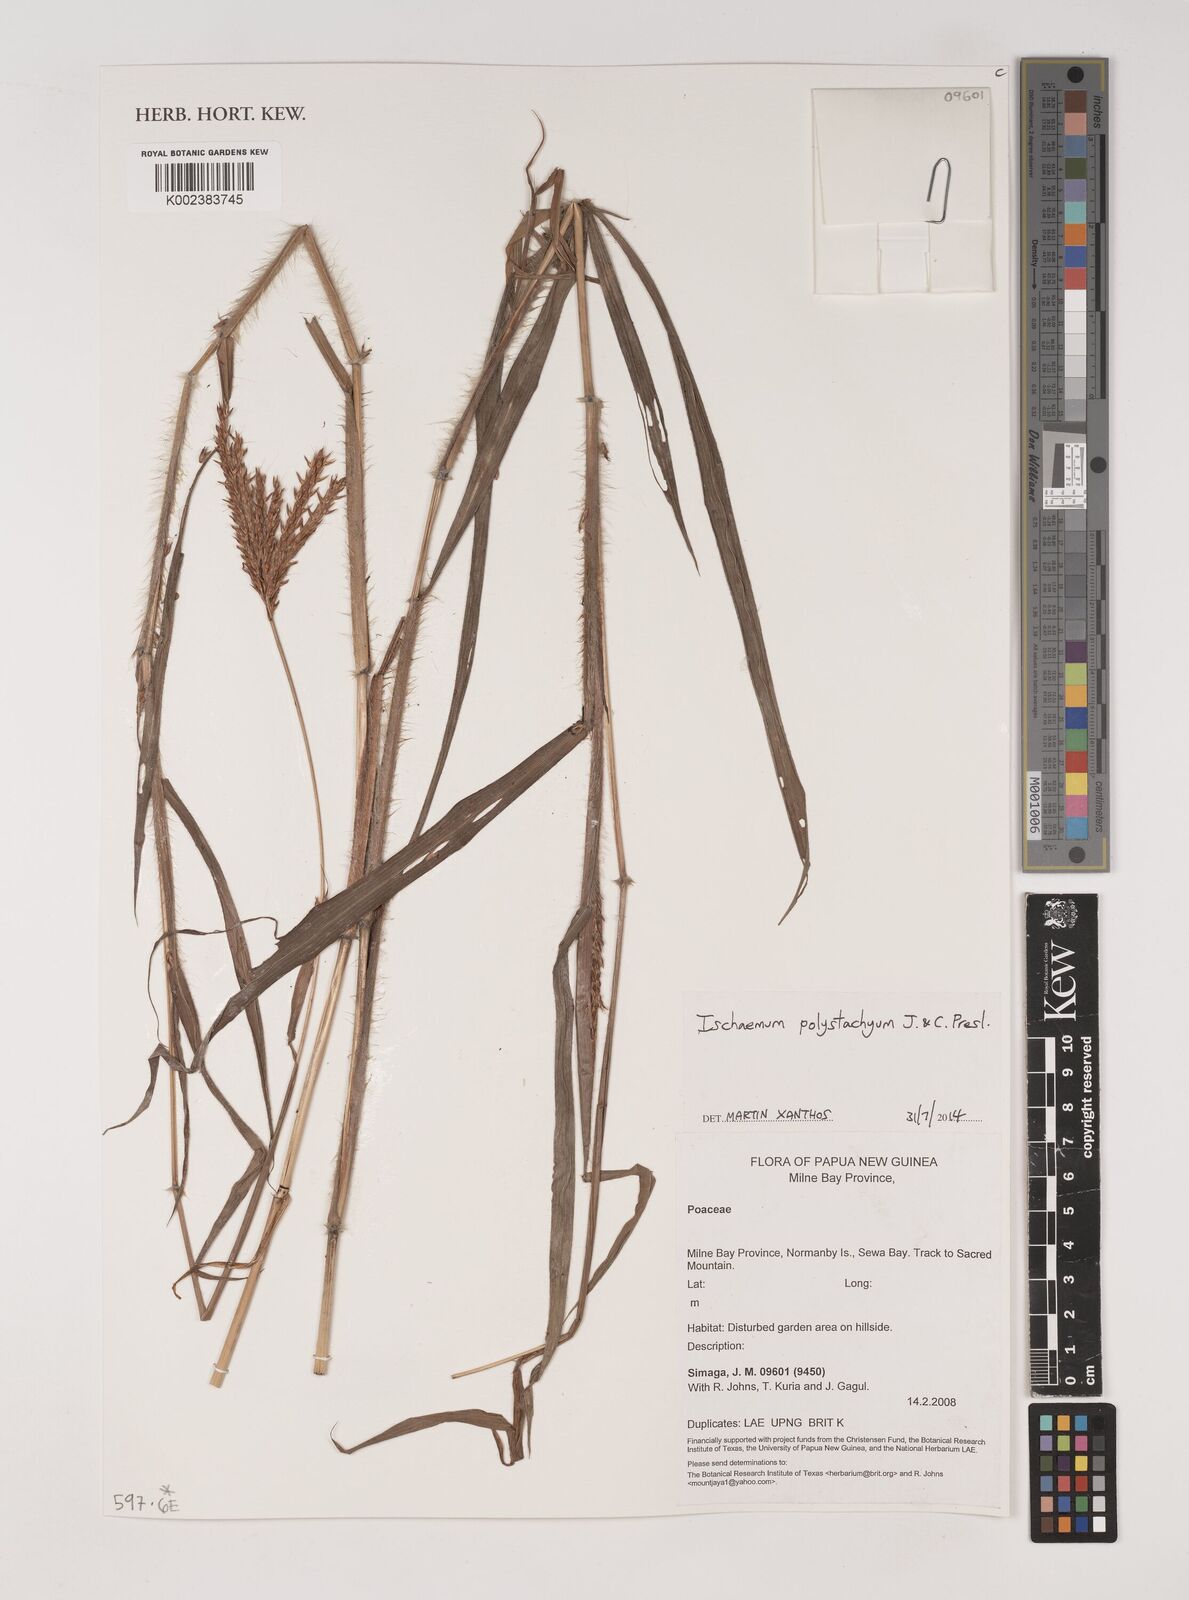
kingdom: Plantae
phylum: Tracheophyta
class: Liliopsida
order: Poales
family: Poaceae
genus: Ischaemum
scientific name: Ischaemum polystachyum
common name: Paddle grass
